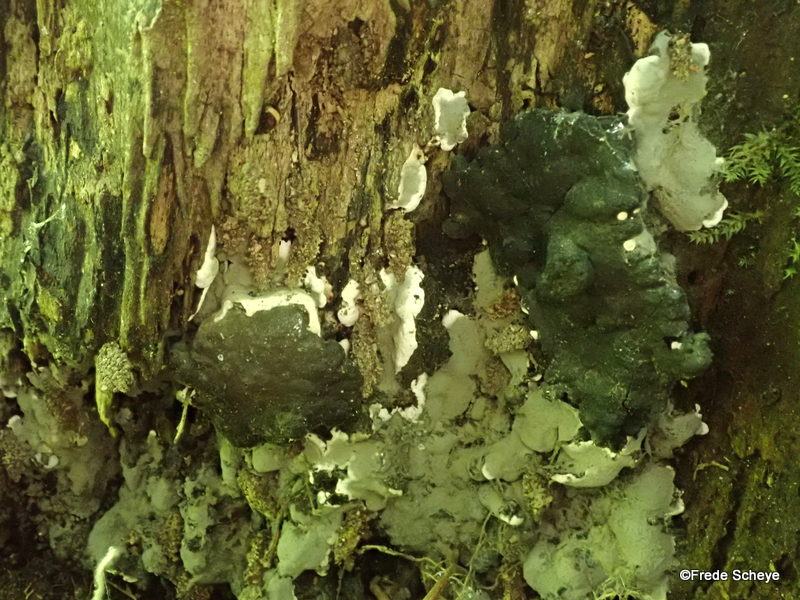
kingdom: Fungi
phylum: Ascomycota
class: Sordariomycetes
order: Xylariales
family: Xylariaceae
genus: Kretzschmaria
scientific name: Kretzschmaria deusta
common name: stor kulsvamp
